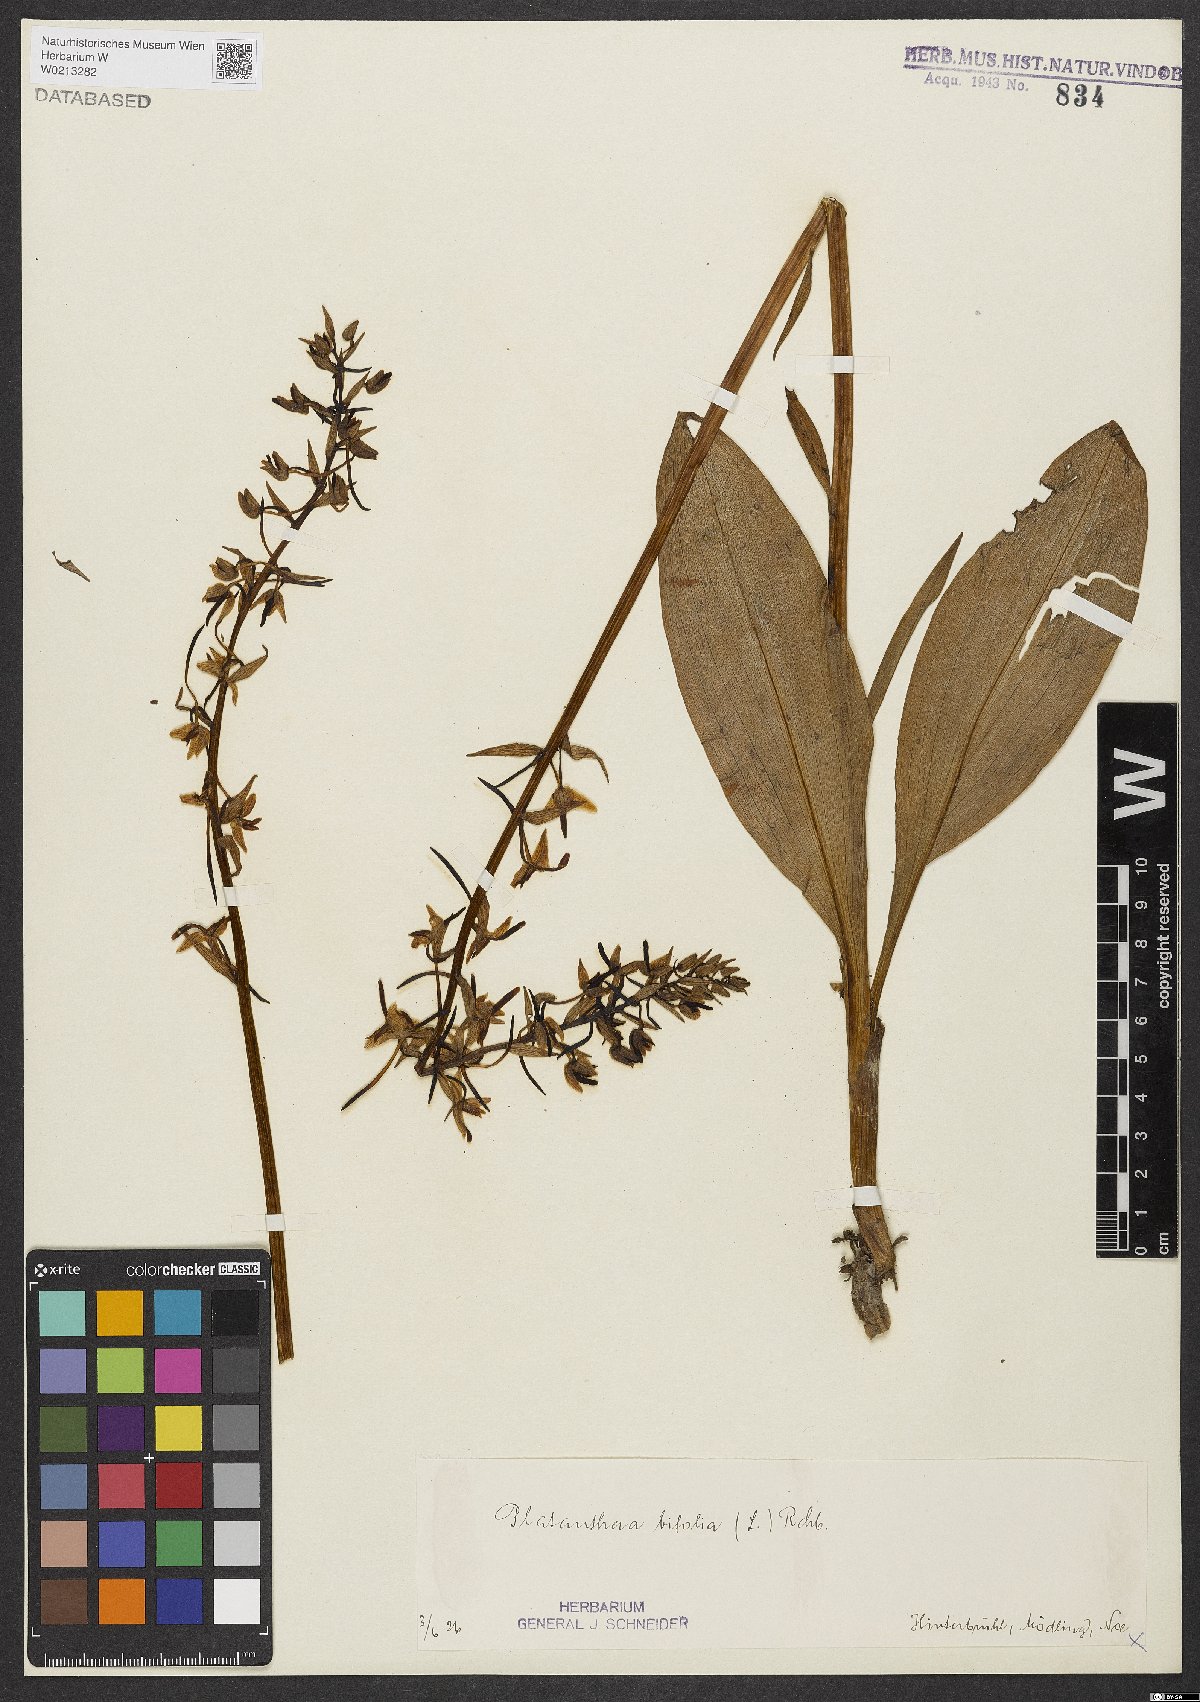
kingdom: Plantae
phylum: Tracheophyta
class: Liliopsida
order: Asparagales
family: Orchidaceae
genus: Platanthera
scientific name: Platanthera bifolia
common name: Lesser butterfly-orchid
